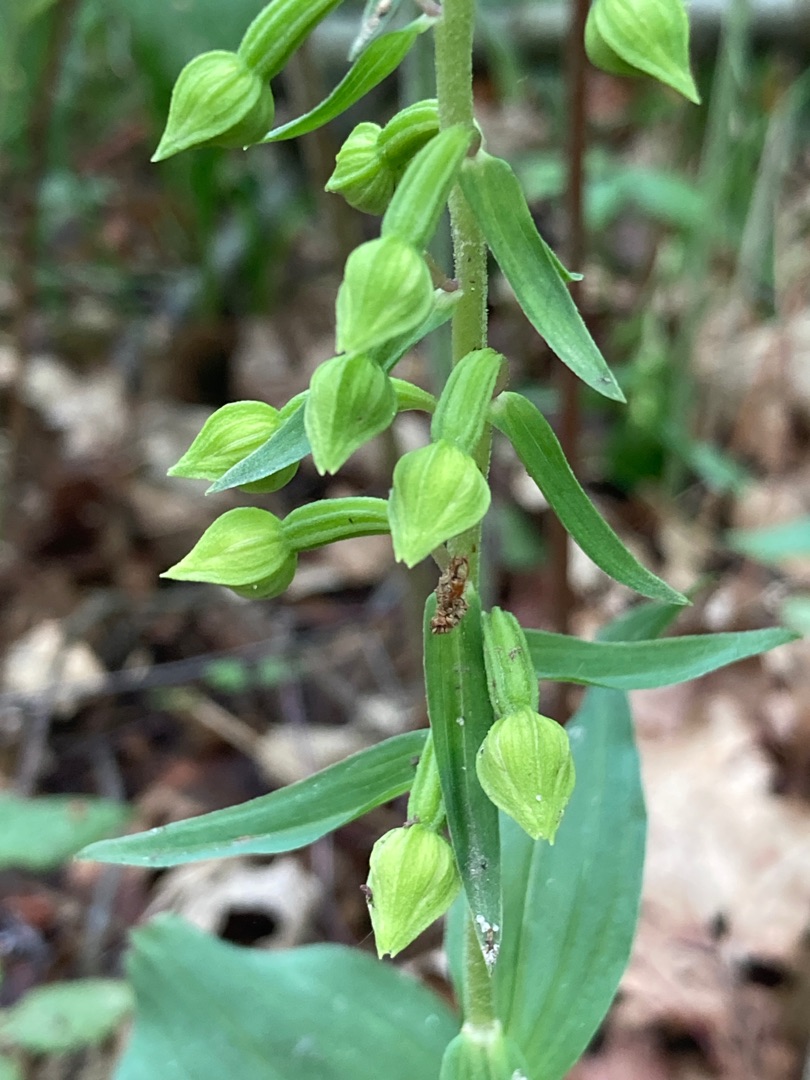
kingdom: Plantae
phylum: Tracheophyta
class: Liliopsida
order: Asparagales
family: Orchidaceae
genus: Epipactis
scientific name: Epipactis helleborine
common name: Skov-hullæbe
